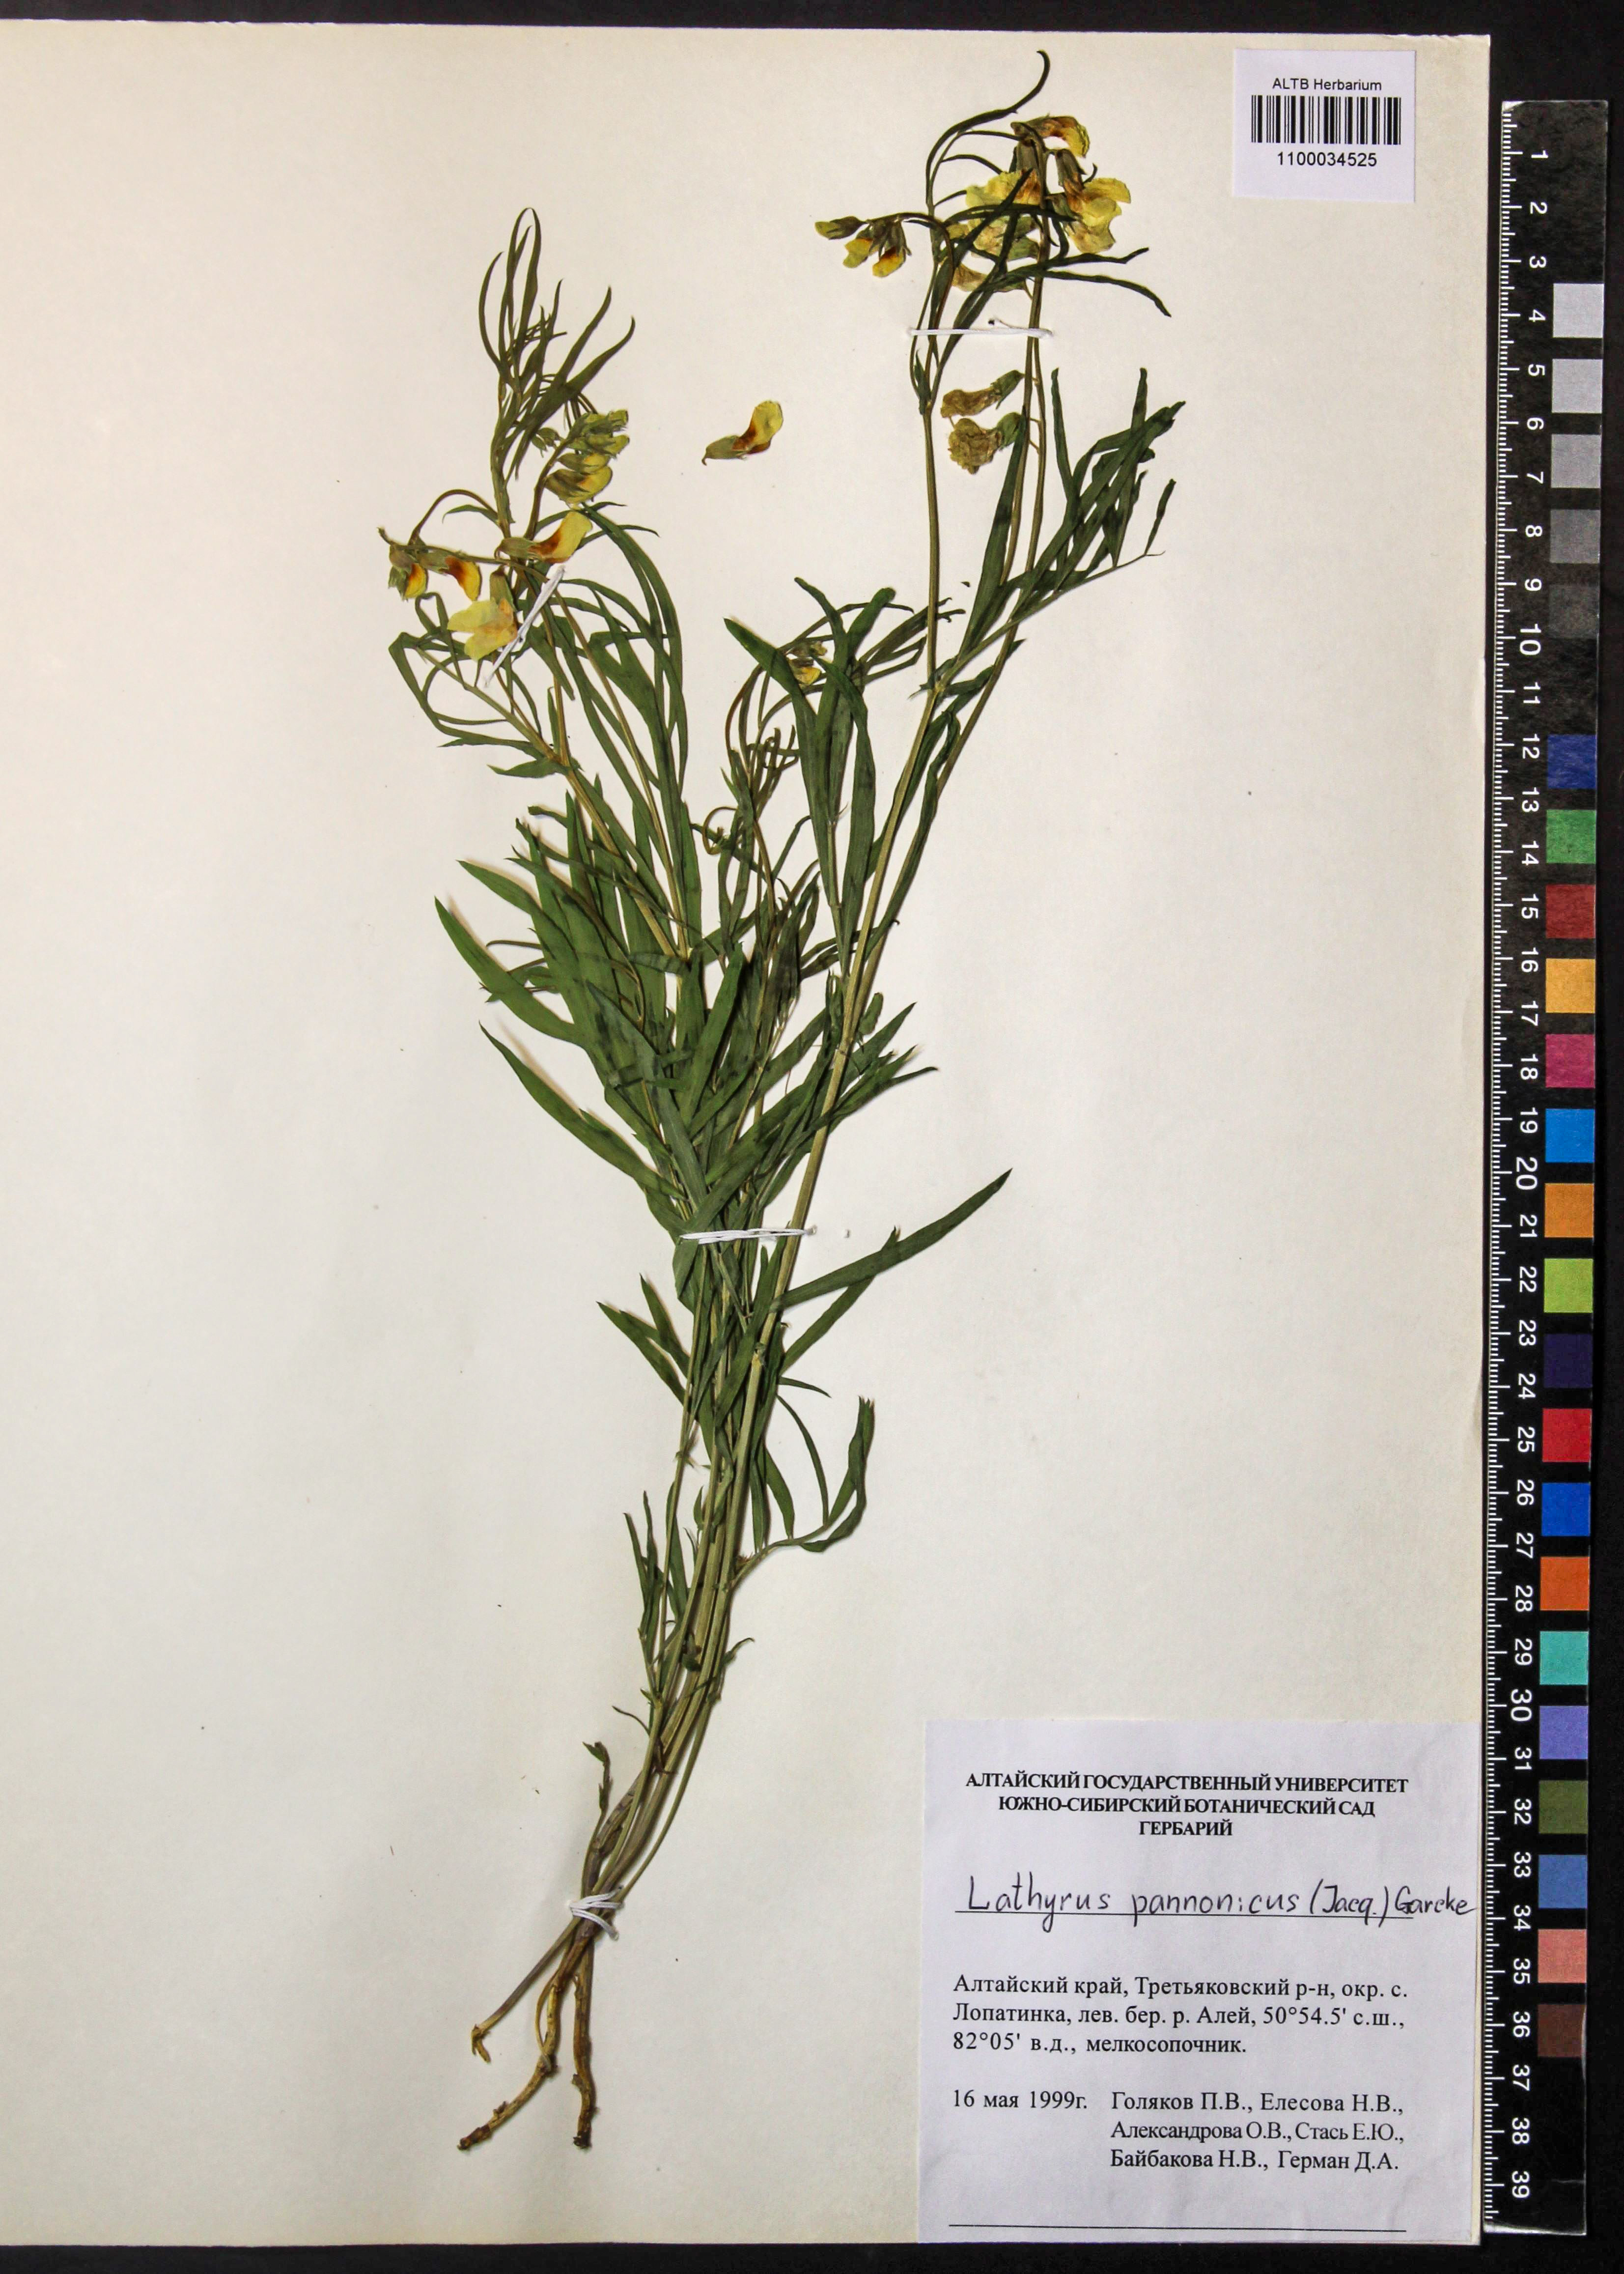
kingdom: Plantae
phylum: Tracheophyta
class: Magnoliopsida
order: Fabales
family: Fabaceae
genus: Lathyrus
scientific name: Lathyrus pannonicus
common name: Pea
